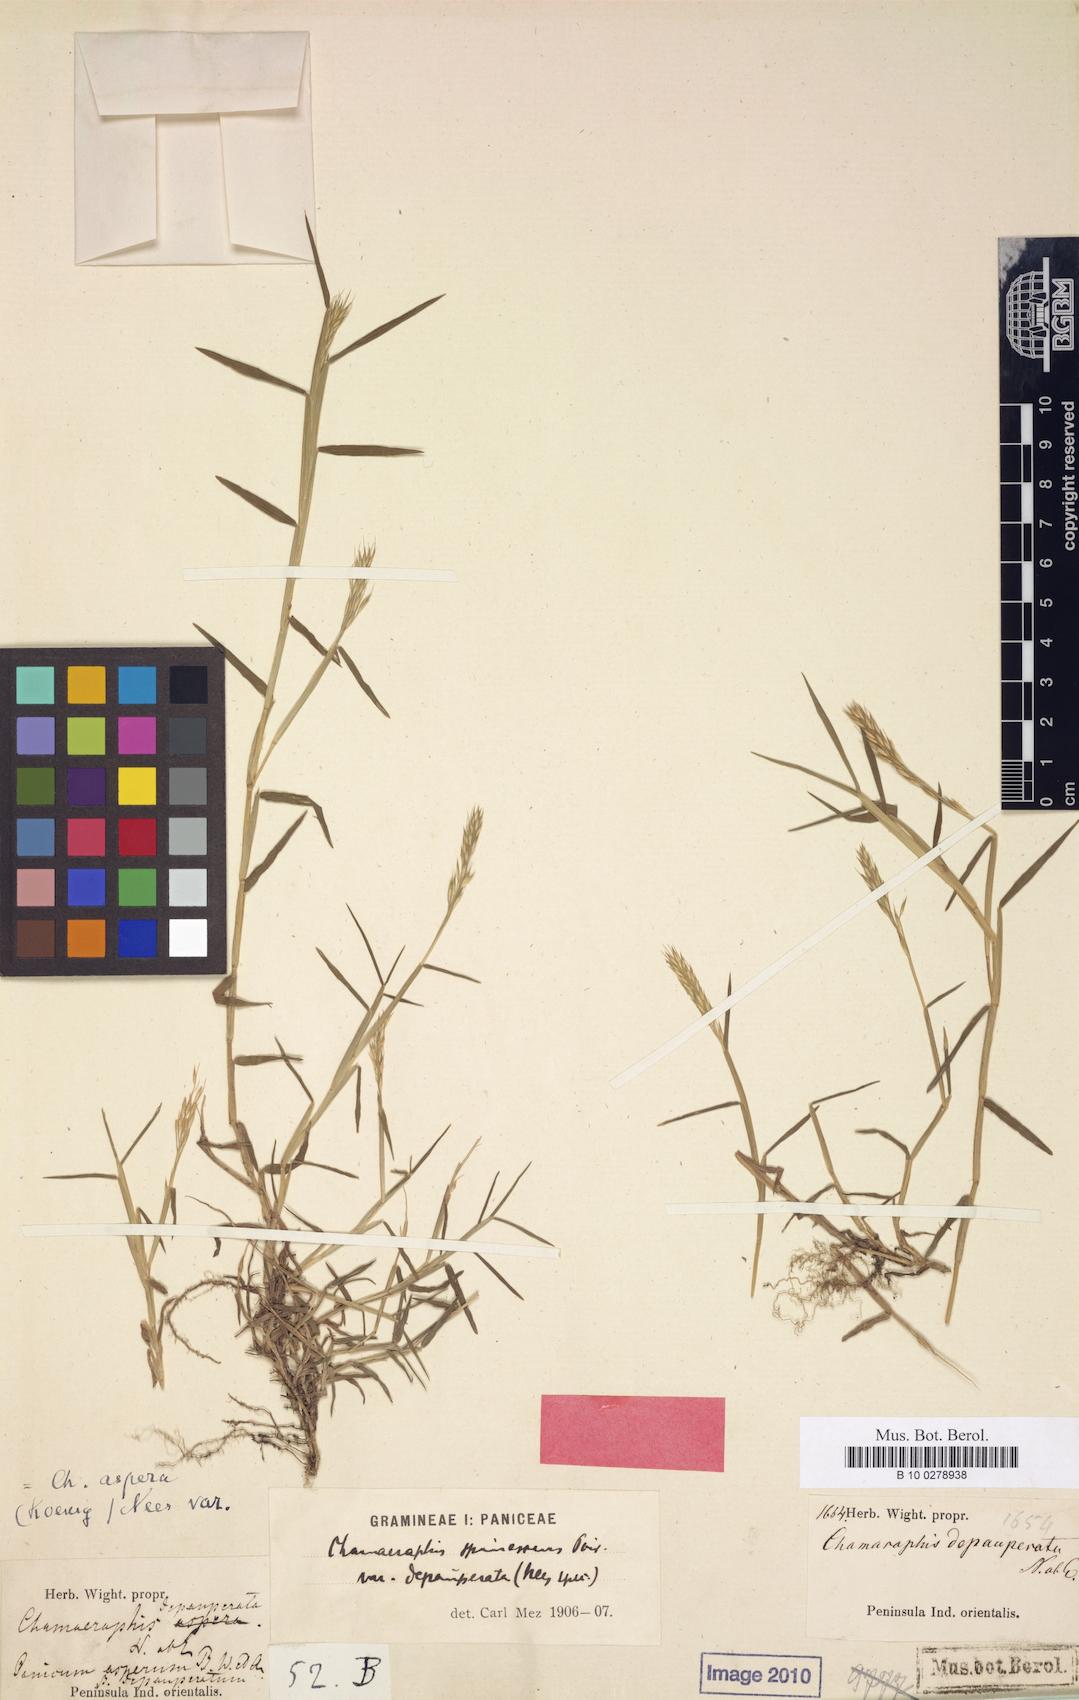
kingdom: Plantae
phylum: Tracheophyta
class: Liliopsida
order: Poales
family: Poaceae
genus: Pseudoraphis
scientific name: Pseudoraphis sordida
